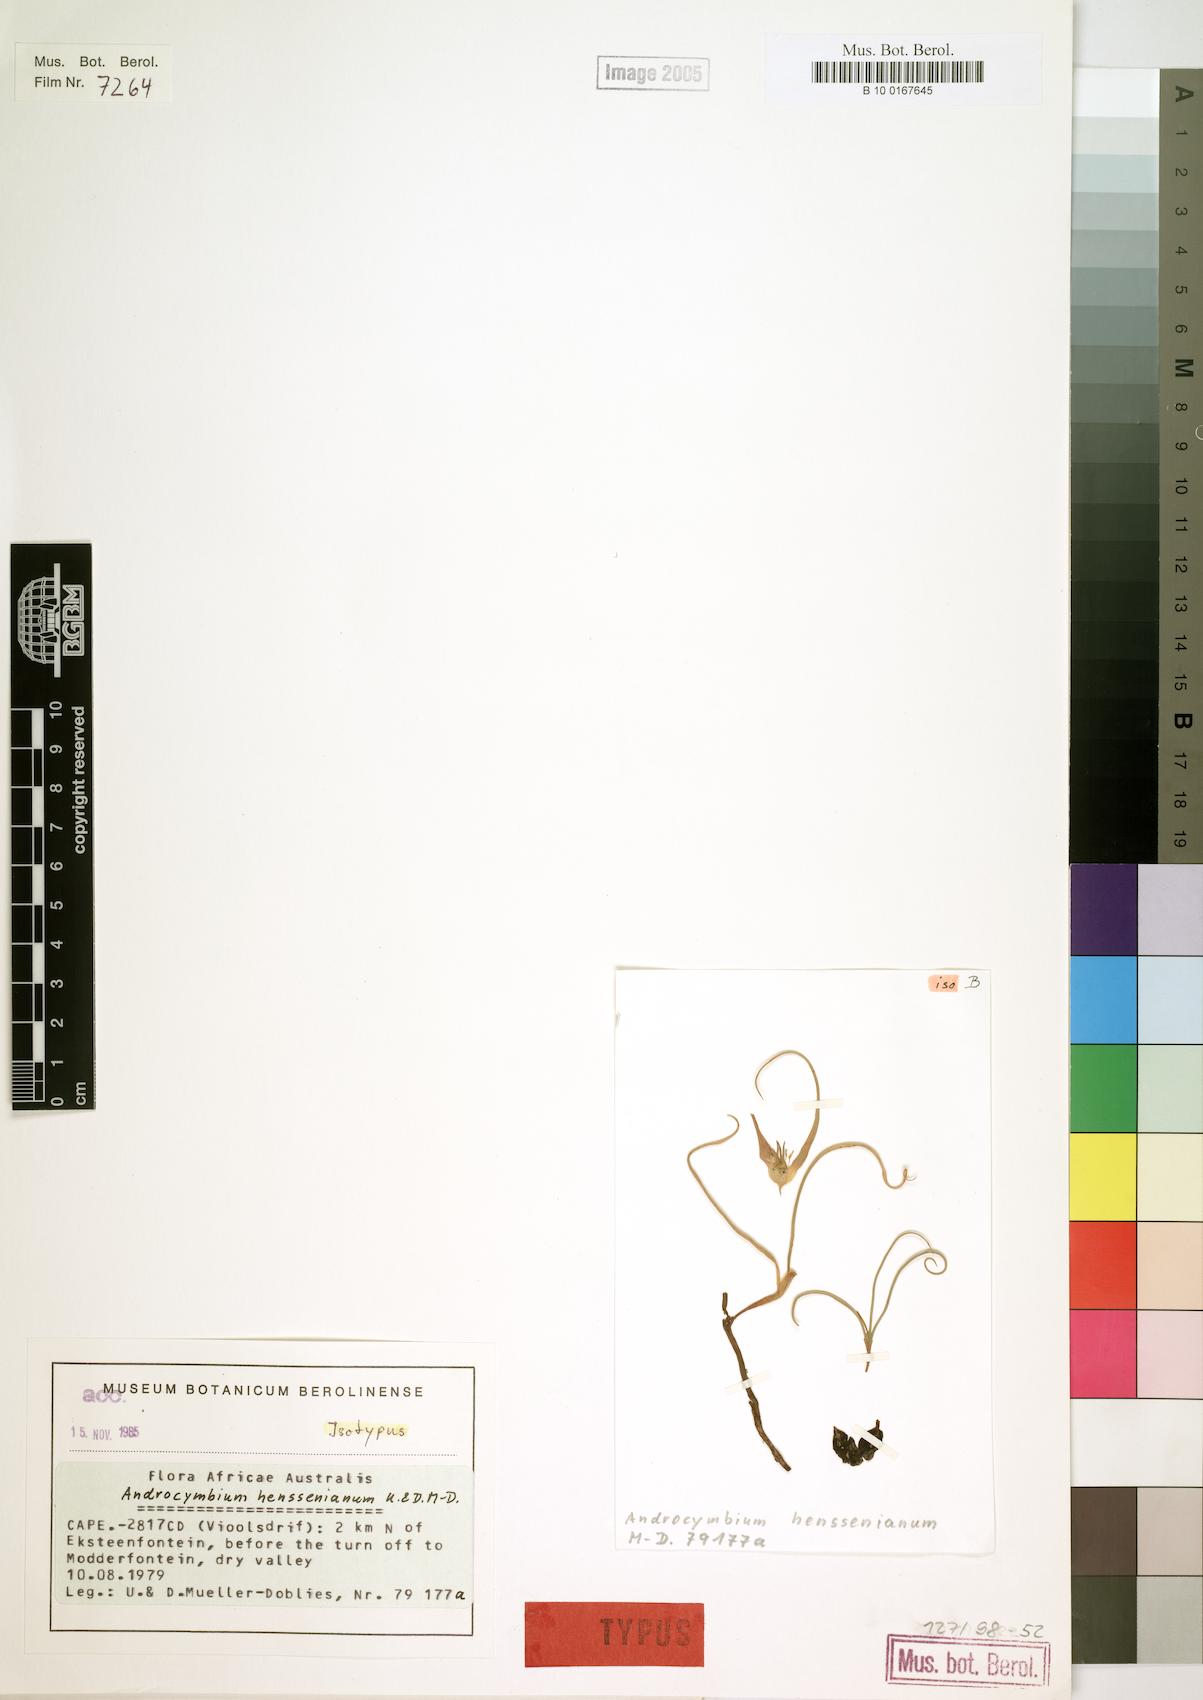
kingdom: Plantae
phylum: Tracheophyta
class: Liliopsida
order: Liliales
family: Colchicaceae
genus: Colchicum
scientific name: Colchicum henssenianum
